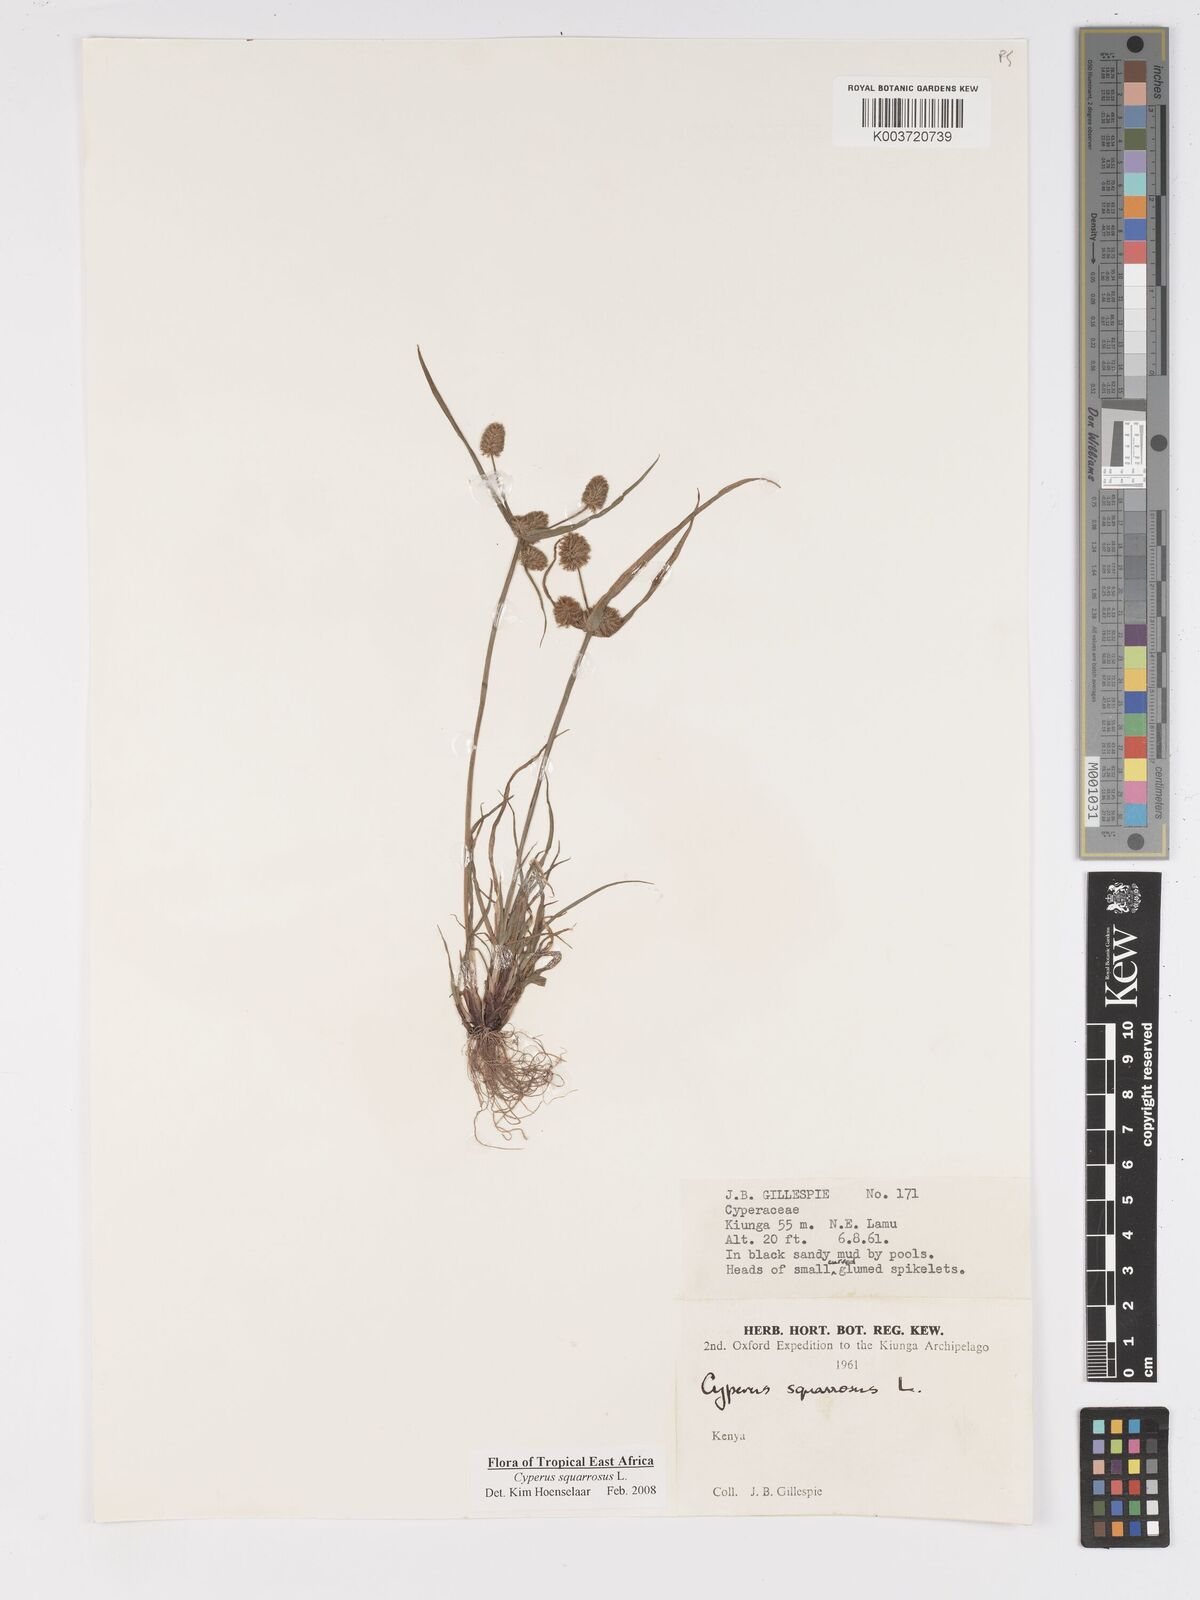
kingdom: Plantae
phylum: Tracheophyta
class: Liliopsida
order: Poales
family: Cyperaceae
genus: Cyperus
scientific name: Cyperus squarrosus
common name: Awned cyperus
